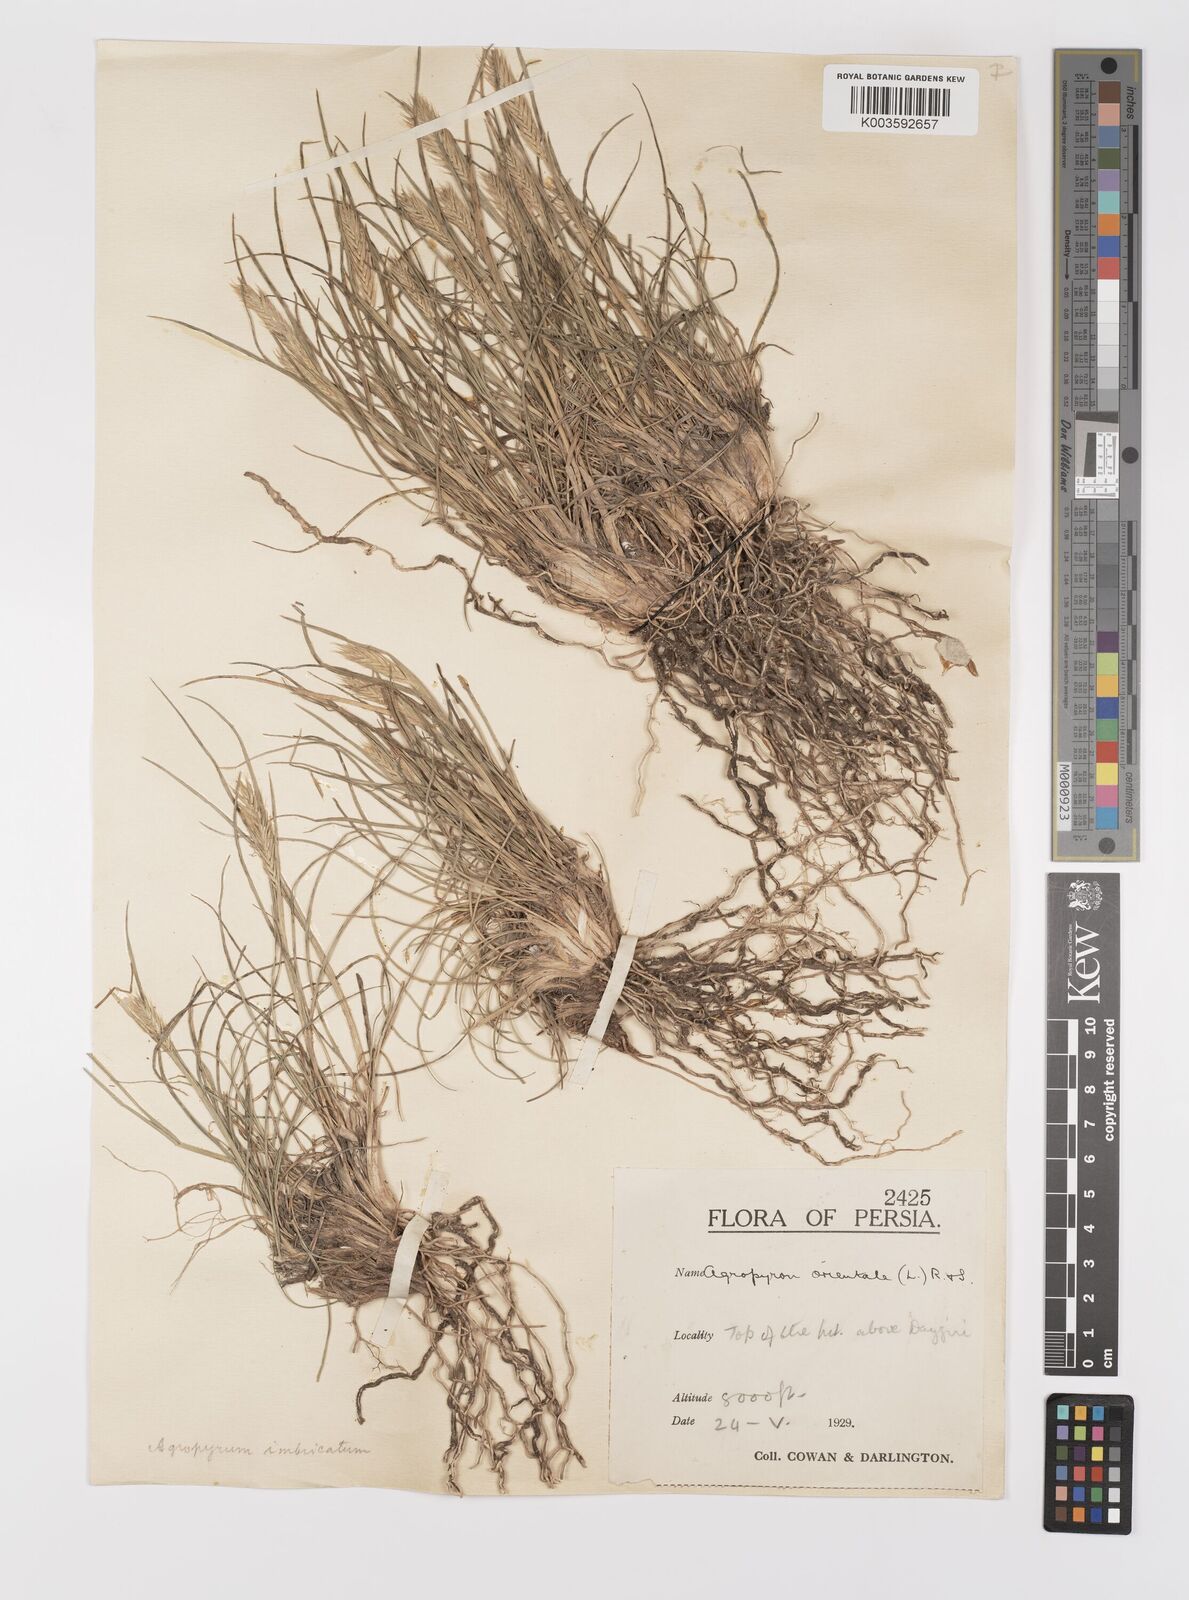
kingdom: Plantae
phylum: Tracheophyta
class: Liliopsida
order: Poales
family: Poaceae
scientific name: Poaceae
